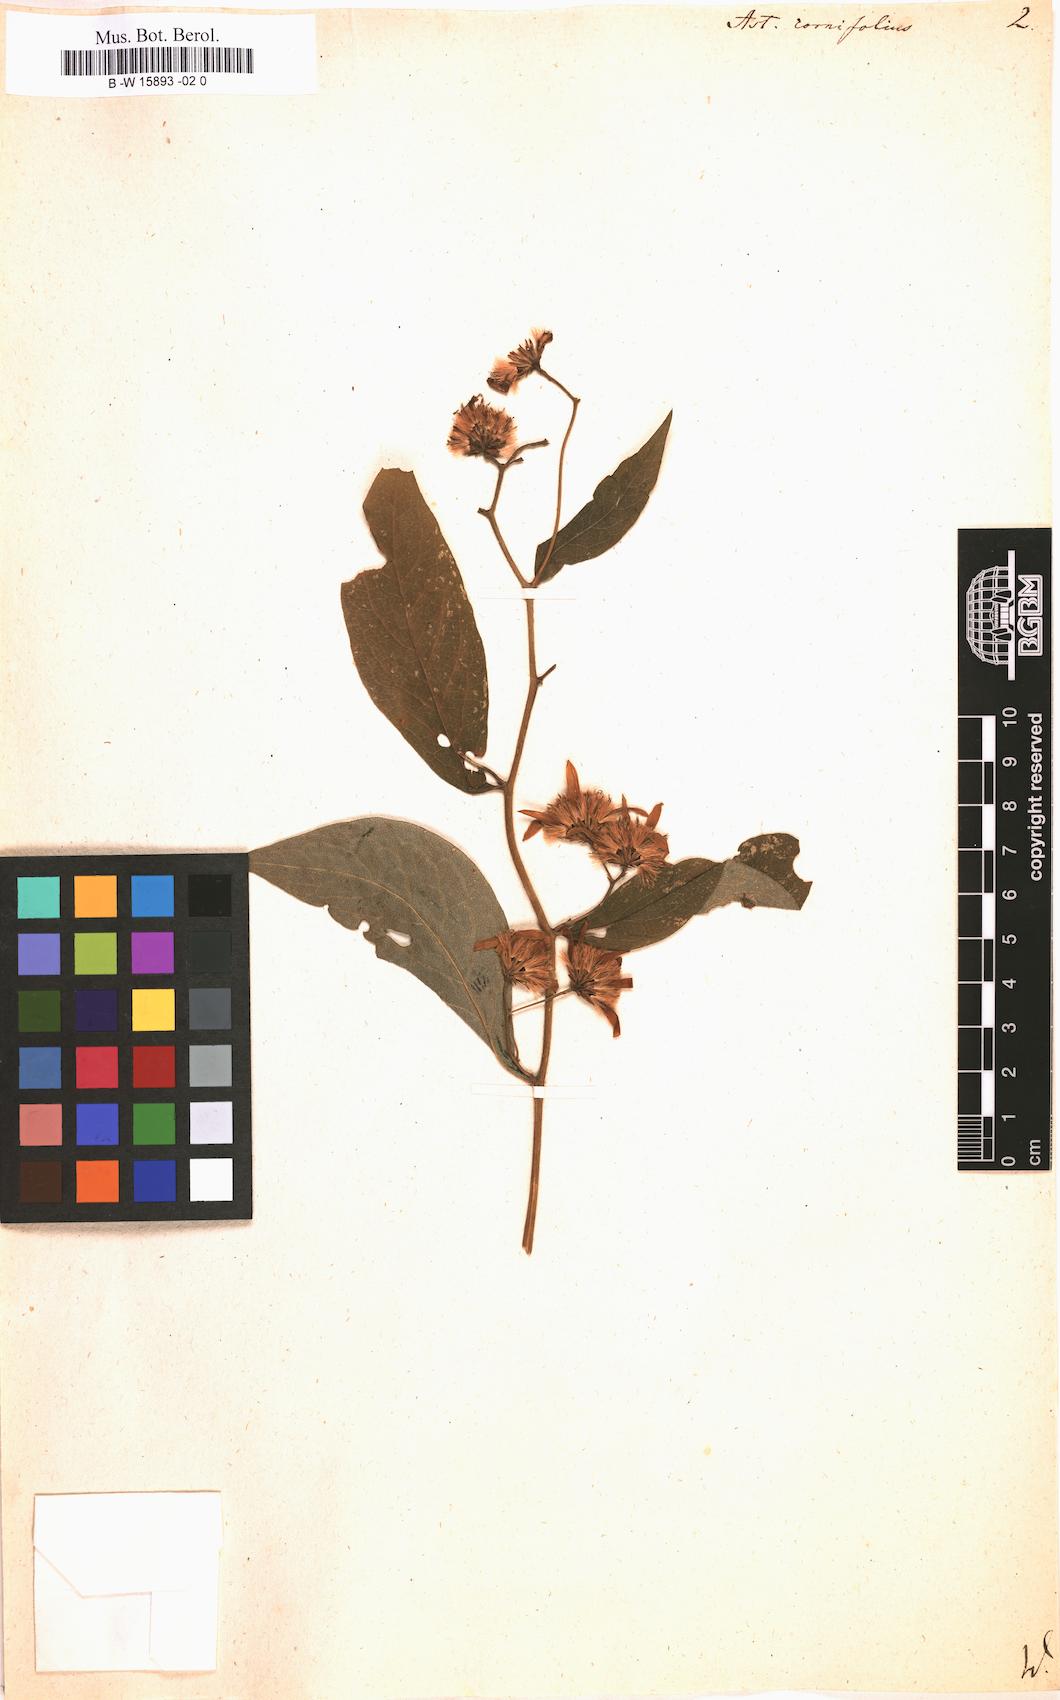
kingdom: Plantae
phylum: Tracheophyta
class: Magnoliopsida
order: Asterales
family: Asteraceae
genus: Doellingeria
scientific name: Doellingeria infirma
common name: Appalachian flat-top aster
